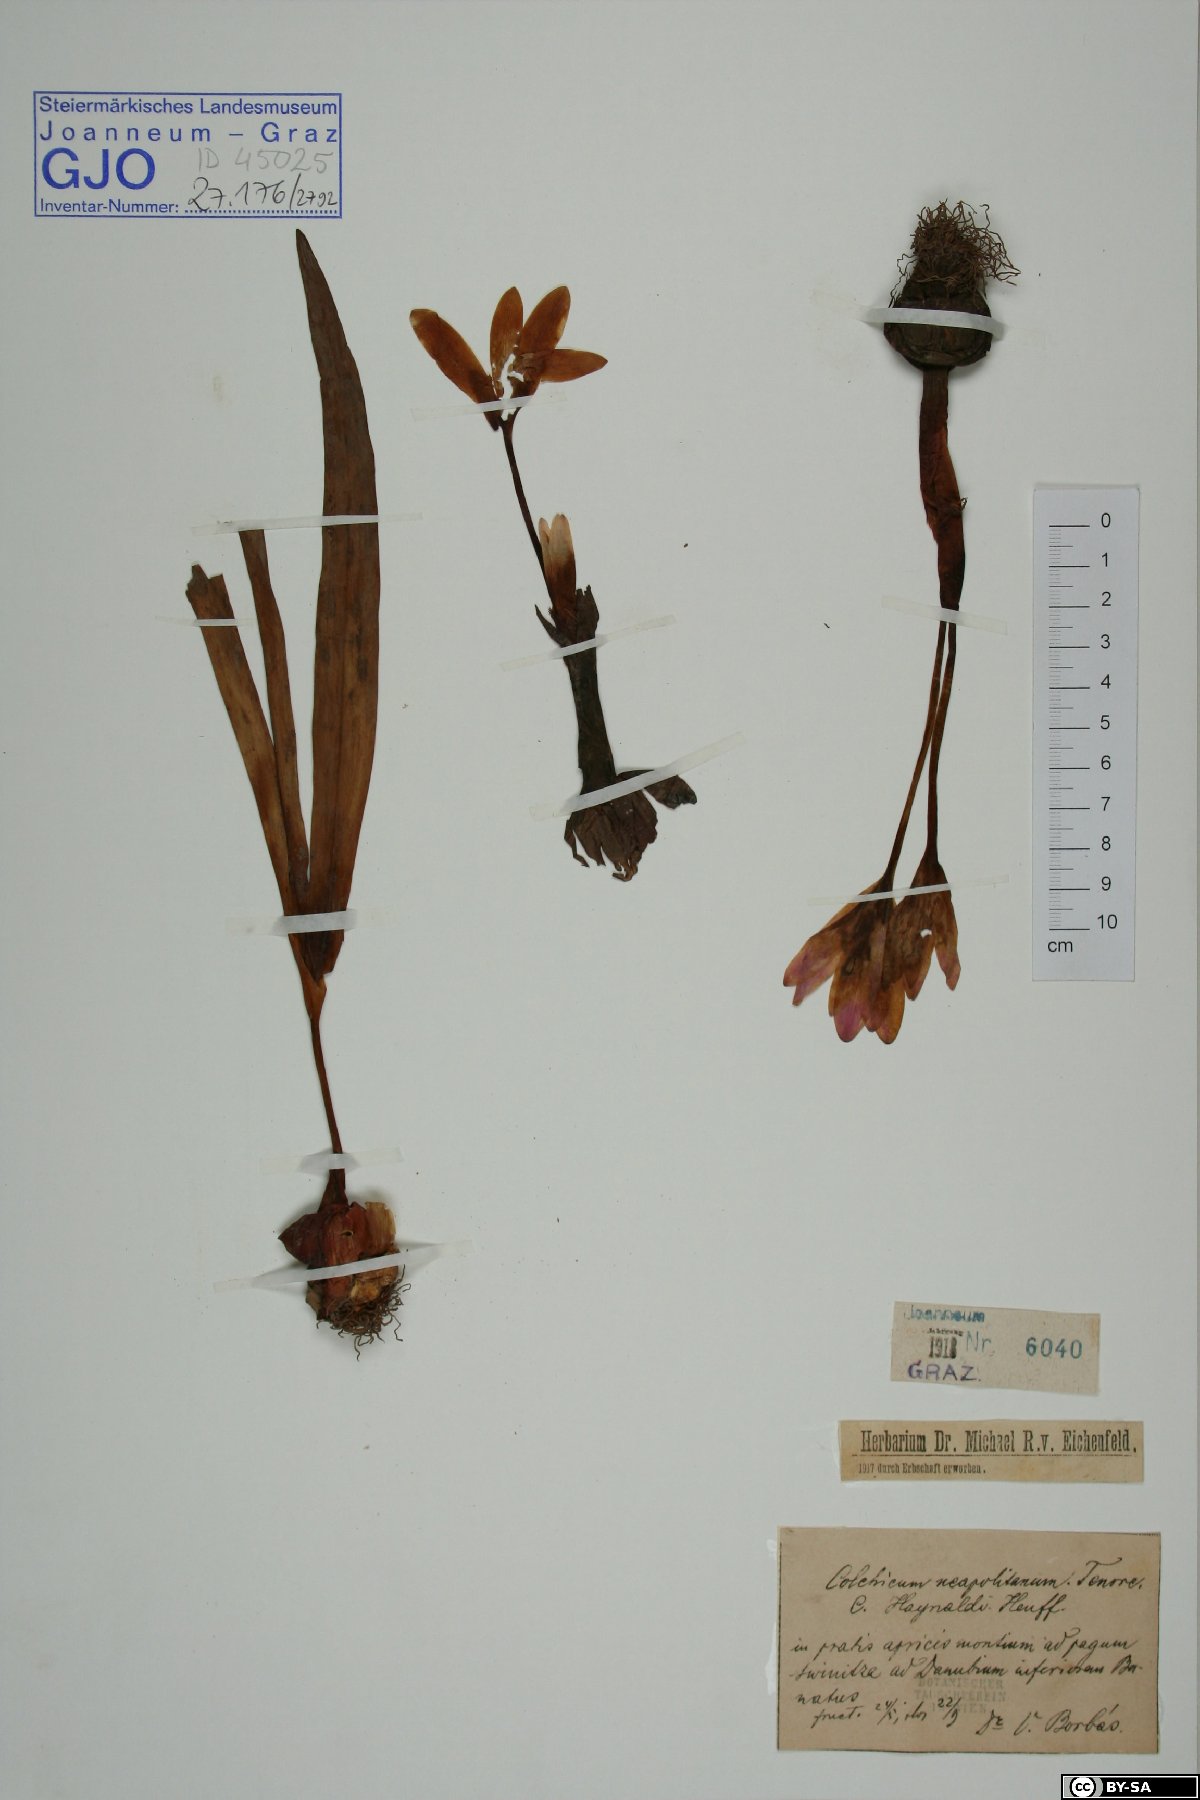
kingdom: Plantae
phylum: Tracheophyta
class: Liliopsida
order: Liliales
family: Colchicaceae
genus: Colchicum
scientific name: Colchicum neapolitanum
